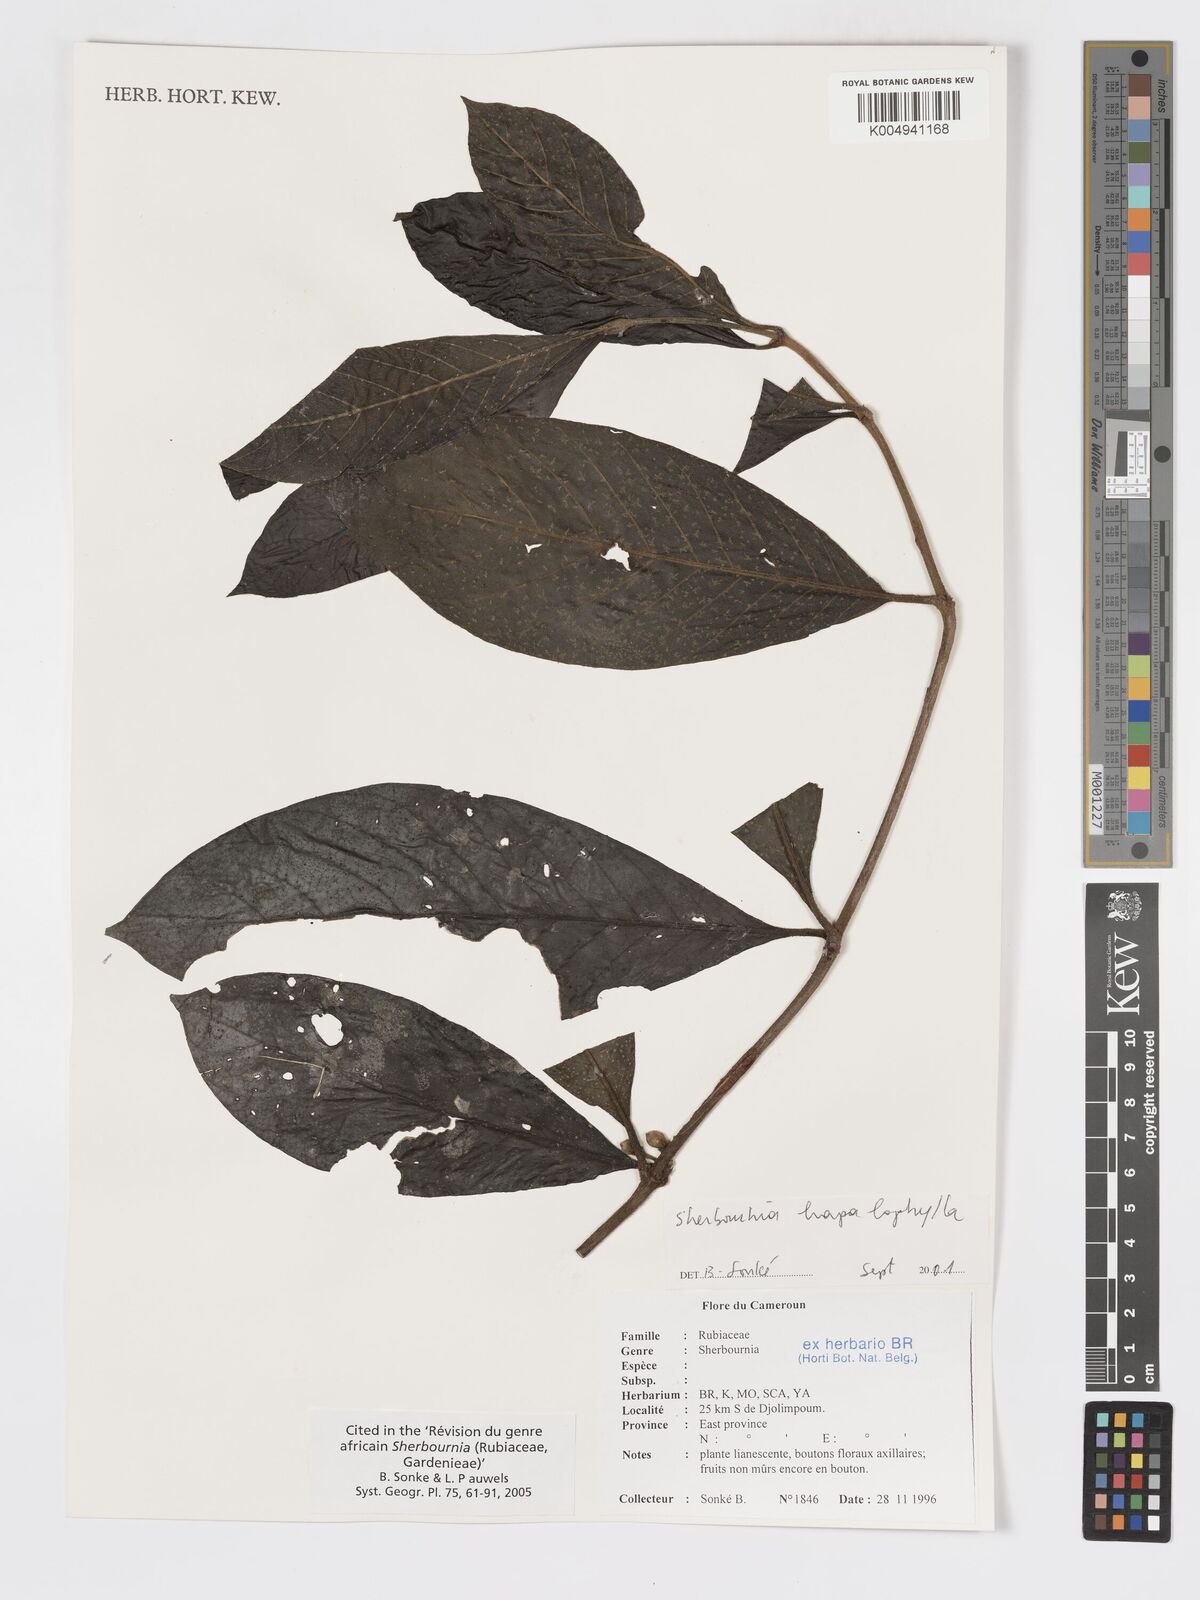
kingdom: Plantae
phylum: Tracheophyta
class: Magnoliopsida
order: Gentianales
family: Rubiaceae
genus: Sherbournia
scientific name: Sherbournia hapalophylla
